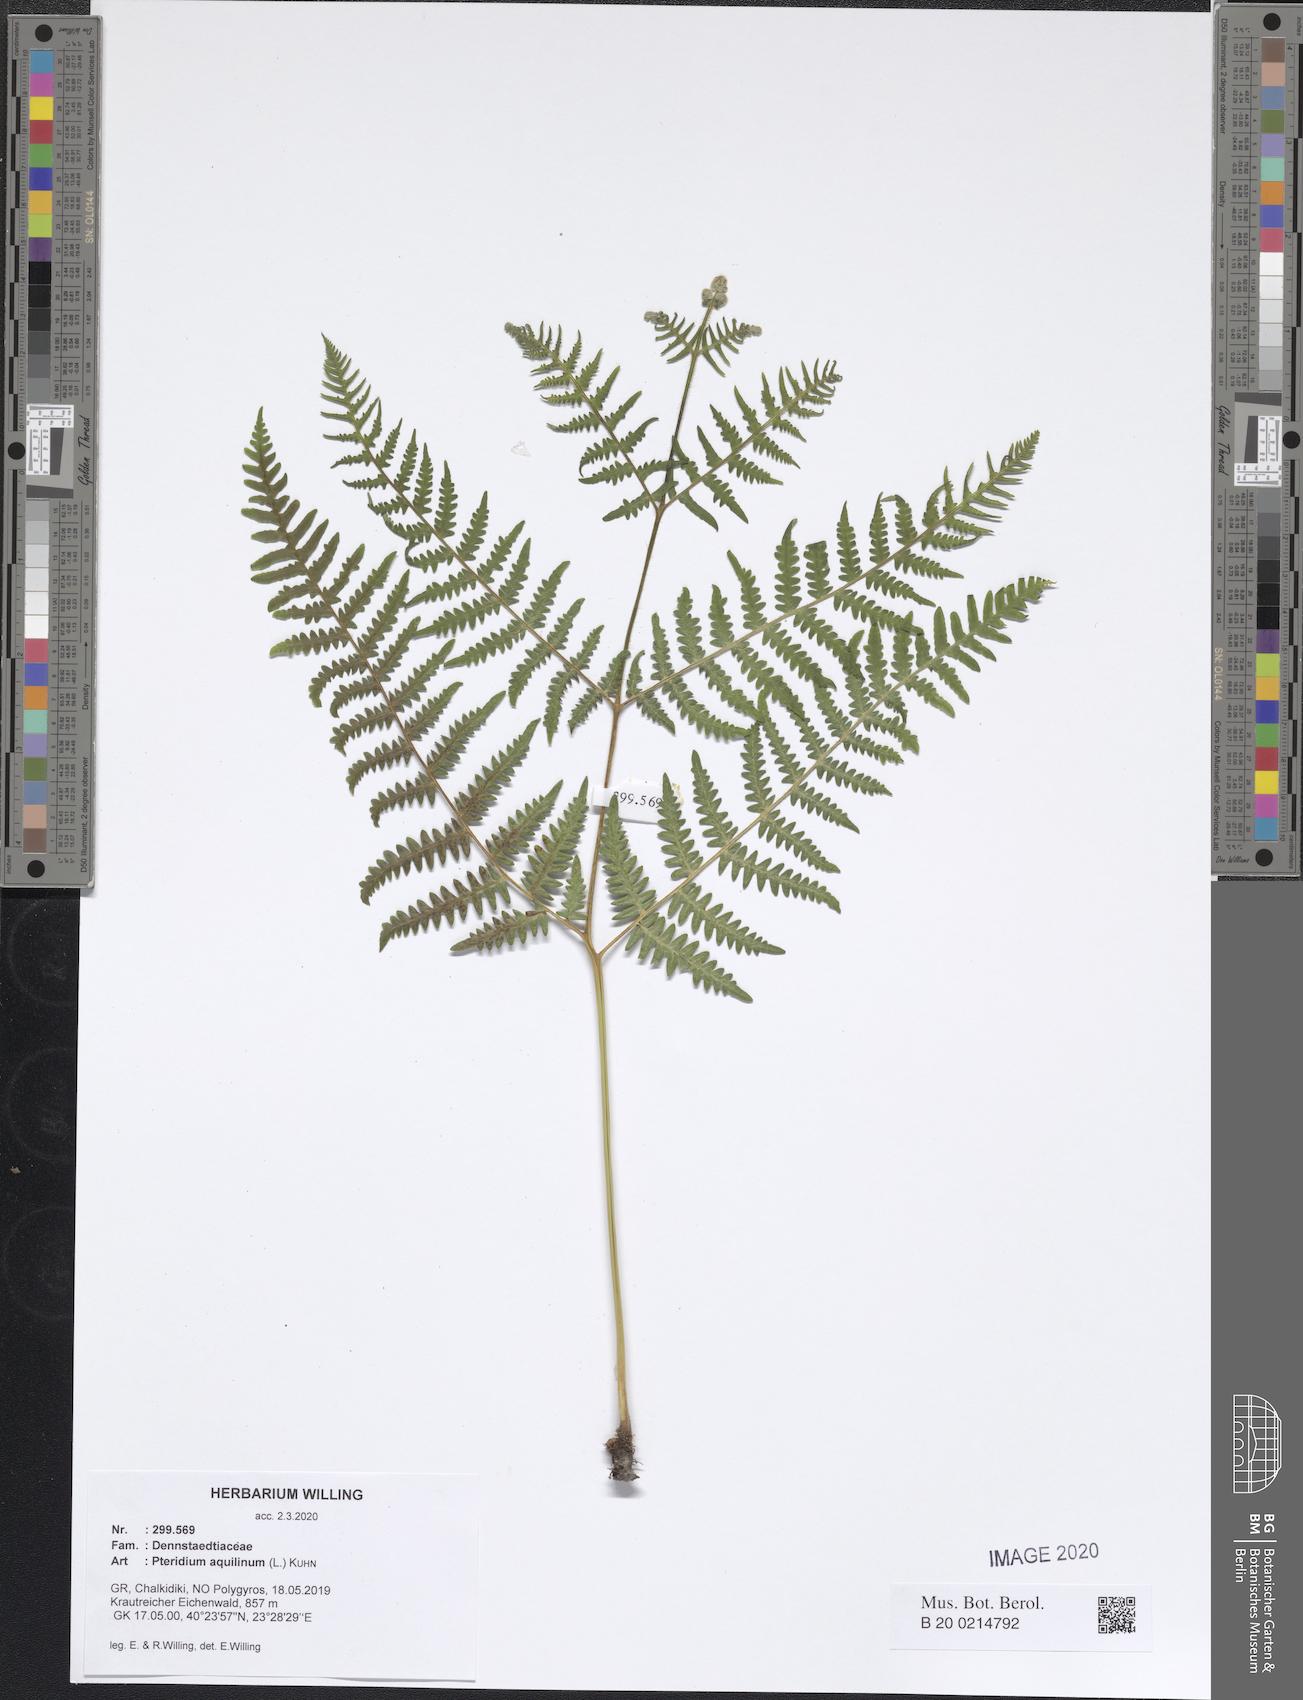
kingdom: Plantae
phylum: Tracheophyta
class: Polypodiopsida
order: Polypodiales
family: Dennstaedtiaceae
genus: Pteridium
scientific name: Pteridium aquilinum
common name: Bracken
